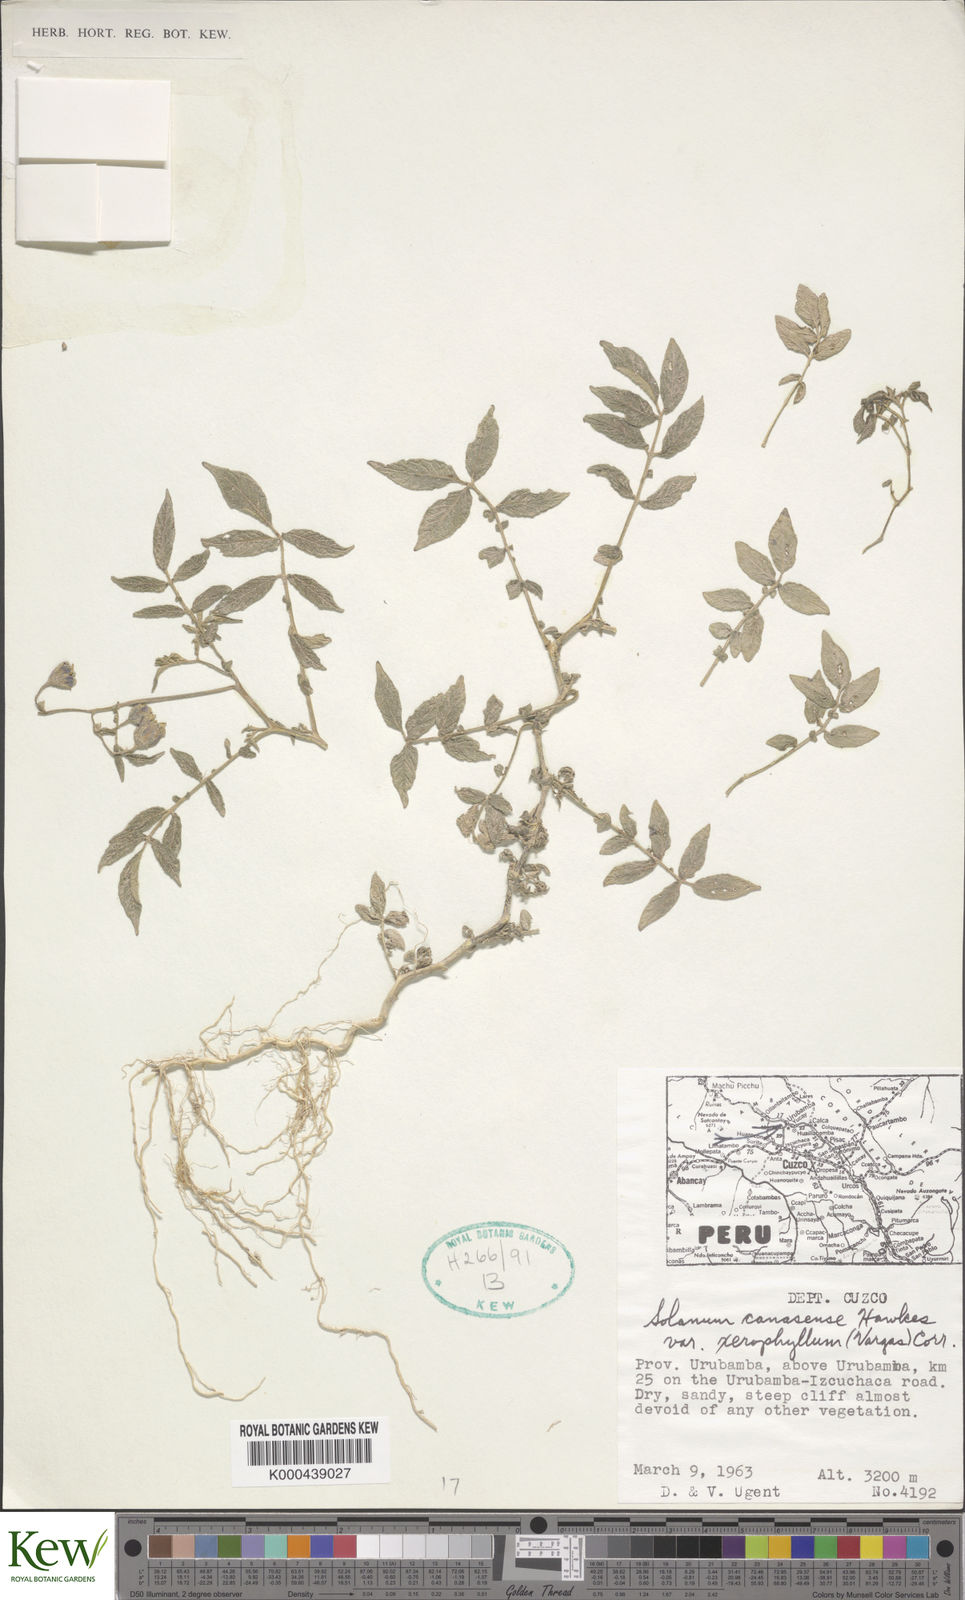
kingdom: Plantae
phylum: Tracheophyta
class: Magnoliopsida
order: Solanales
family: Solanaceae
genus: Solanum
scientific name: Solanum candolleanum
